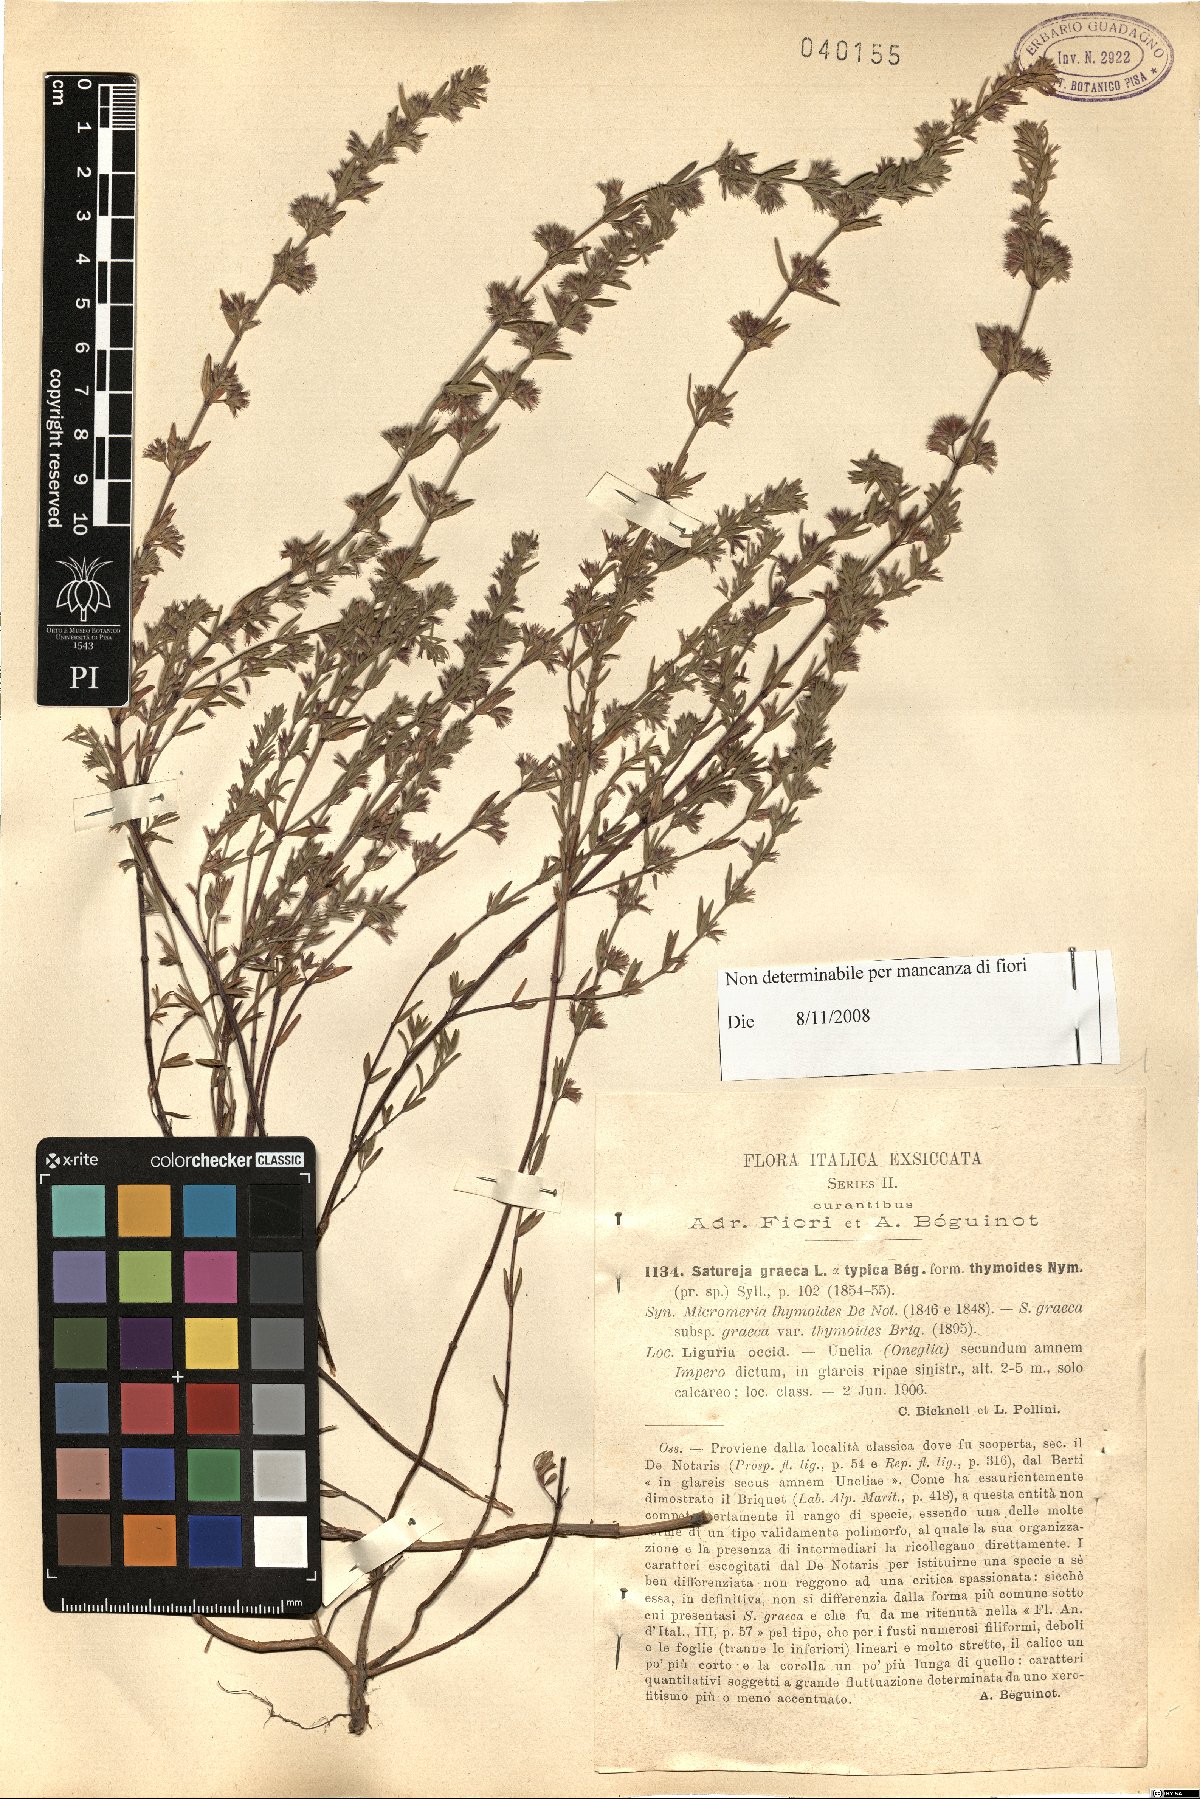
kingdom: Plantae
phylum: Tracheophyta
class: Magnoliopsida
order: Lamiales
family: Lamiaceae
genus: Micromeria
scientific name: Micromeria graeca
